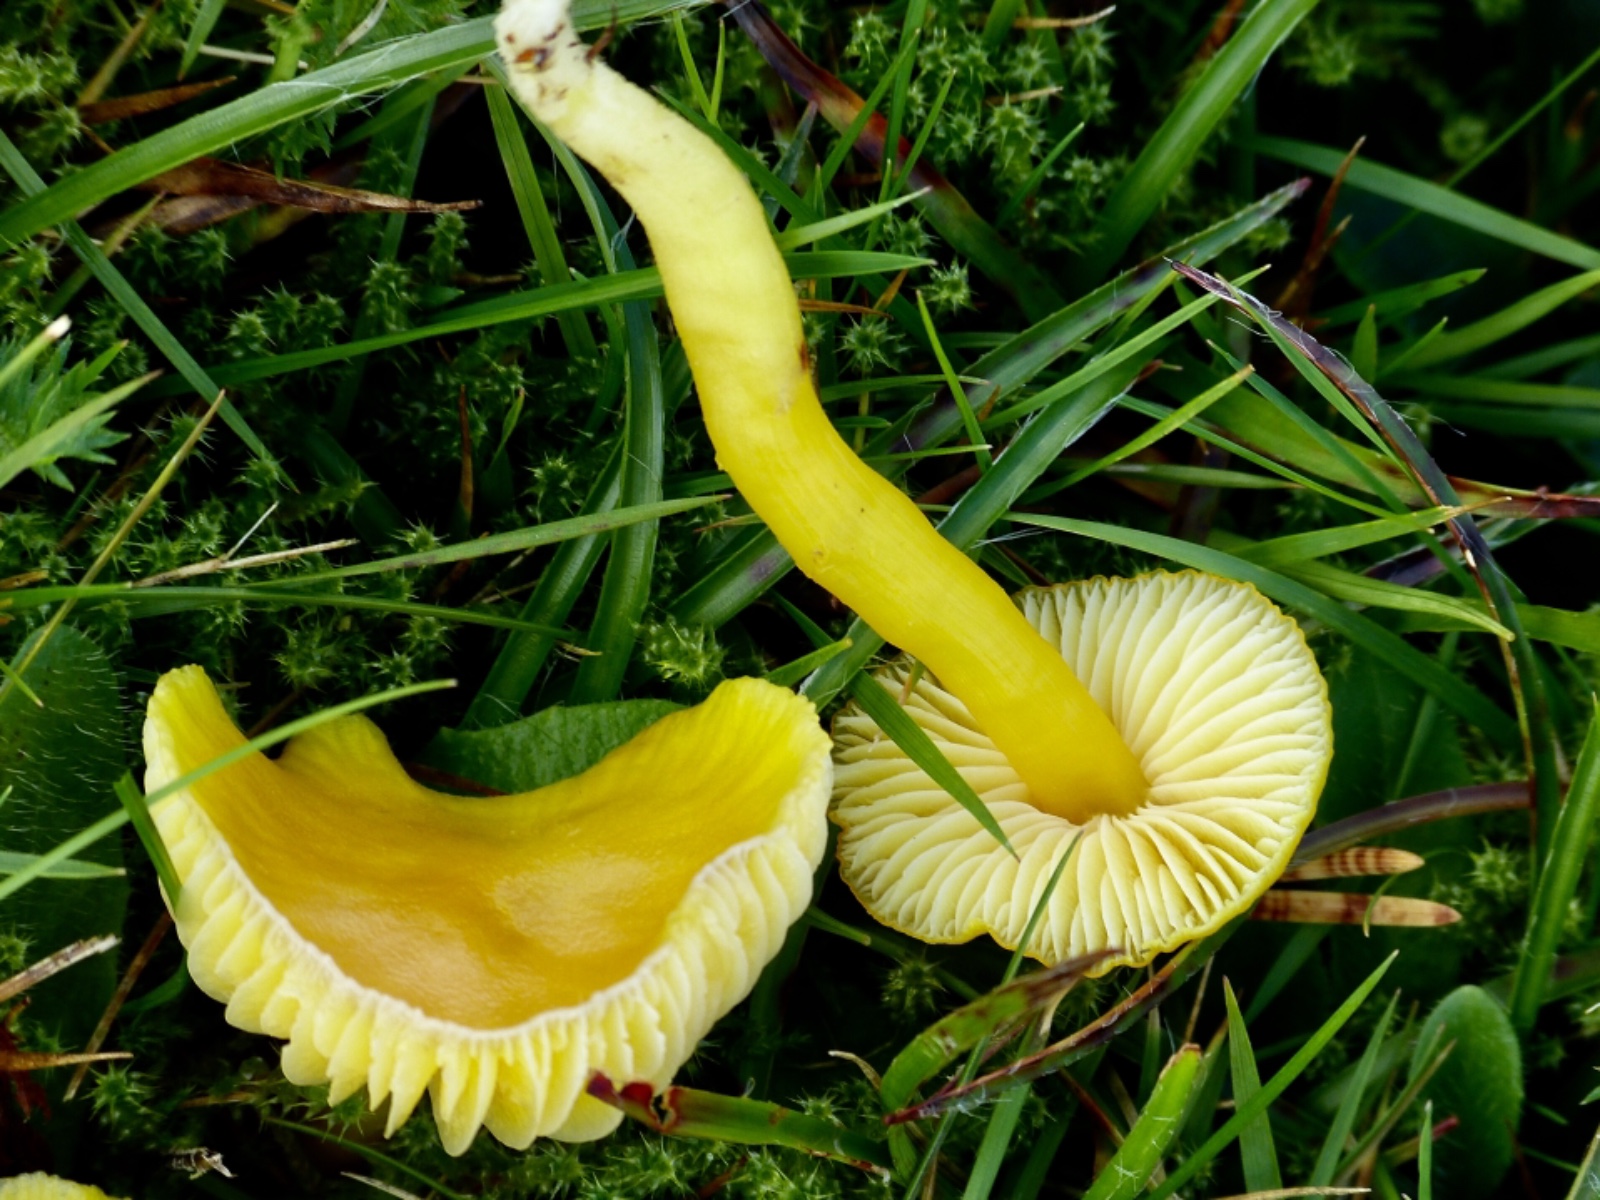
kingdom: Fungi
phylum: Basidiomycota
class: Agaricomycetes
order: Agaricales
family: Hygrophoraceae
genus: Hygrocybe
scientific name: Hygrocybe chlorophana
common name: gul vokshat
